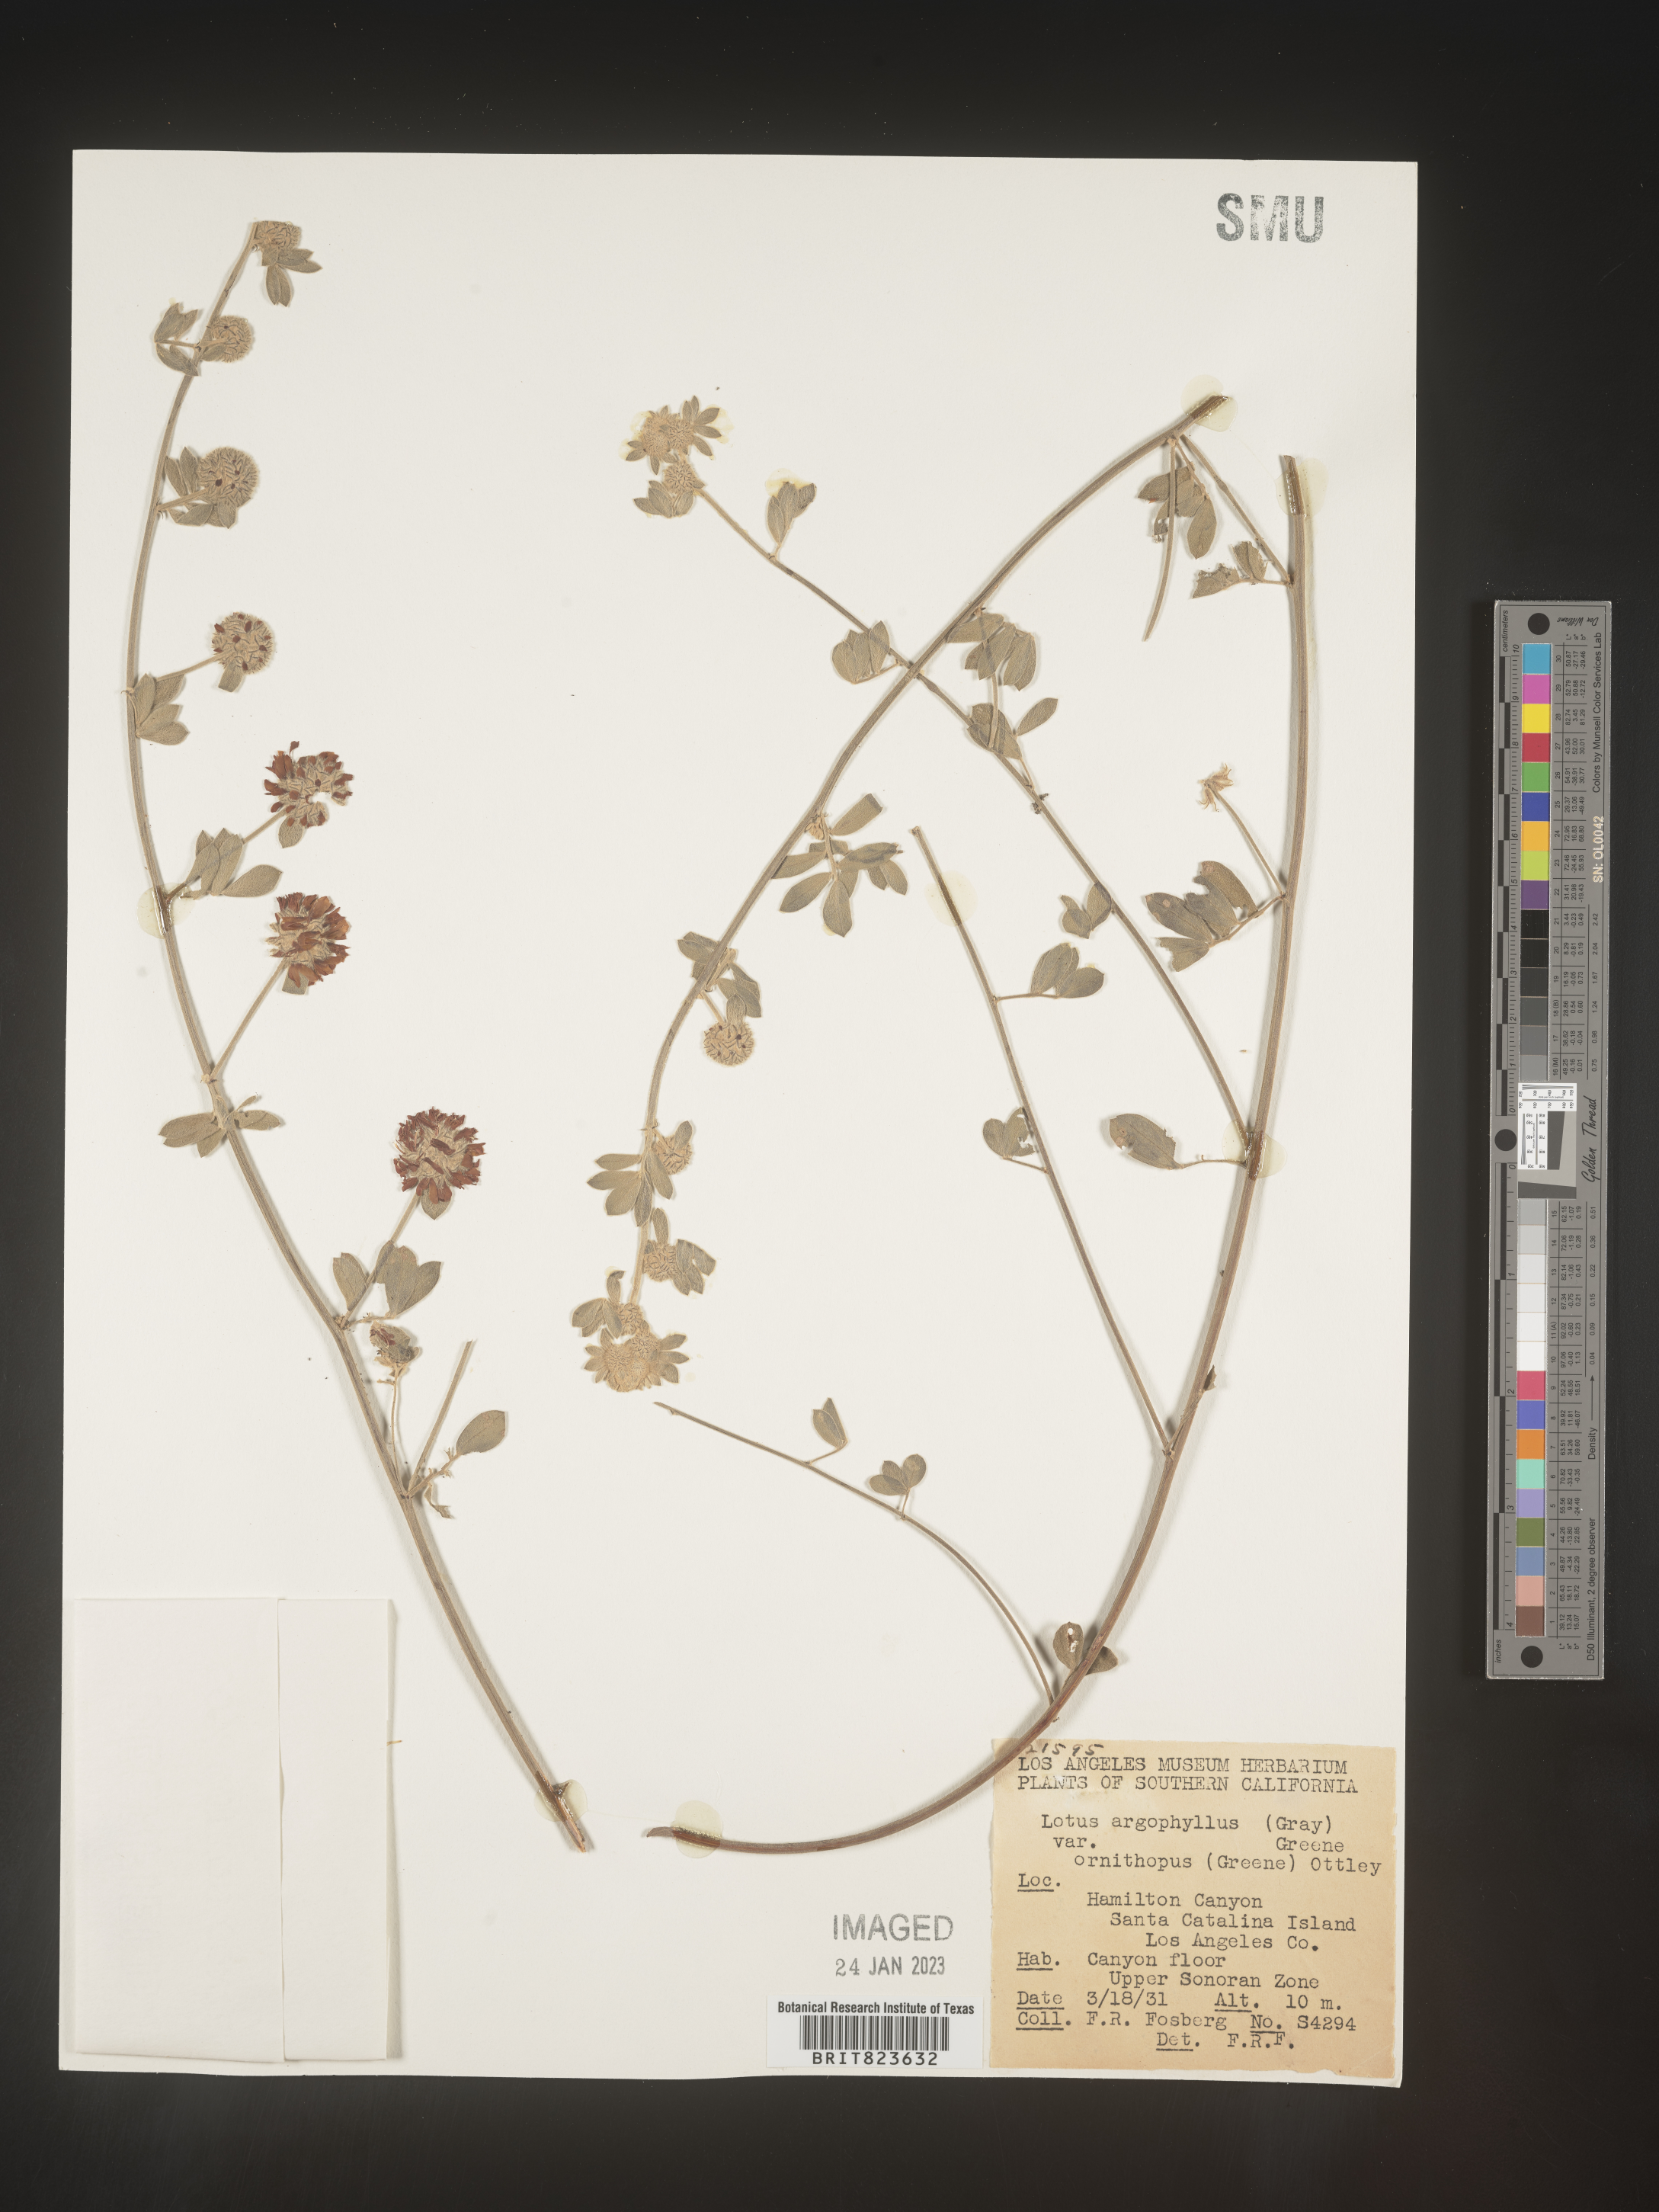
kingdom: Plantae
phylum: Tracheophyta
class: Magnoliopsida
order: Fabales
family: Fabaceae
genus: Lotus
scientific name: Lotus
